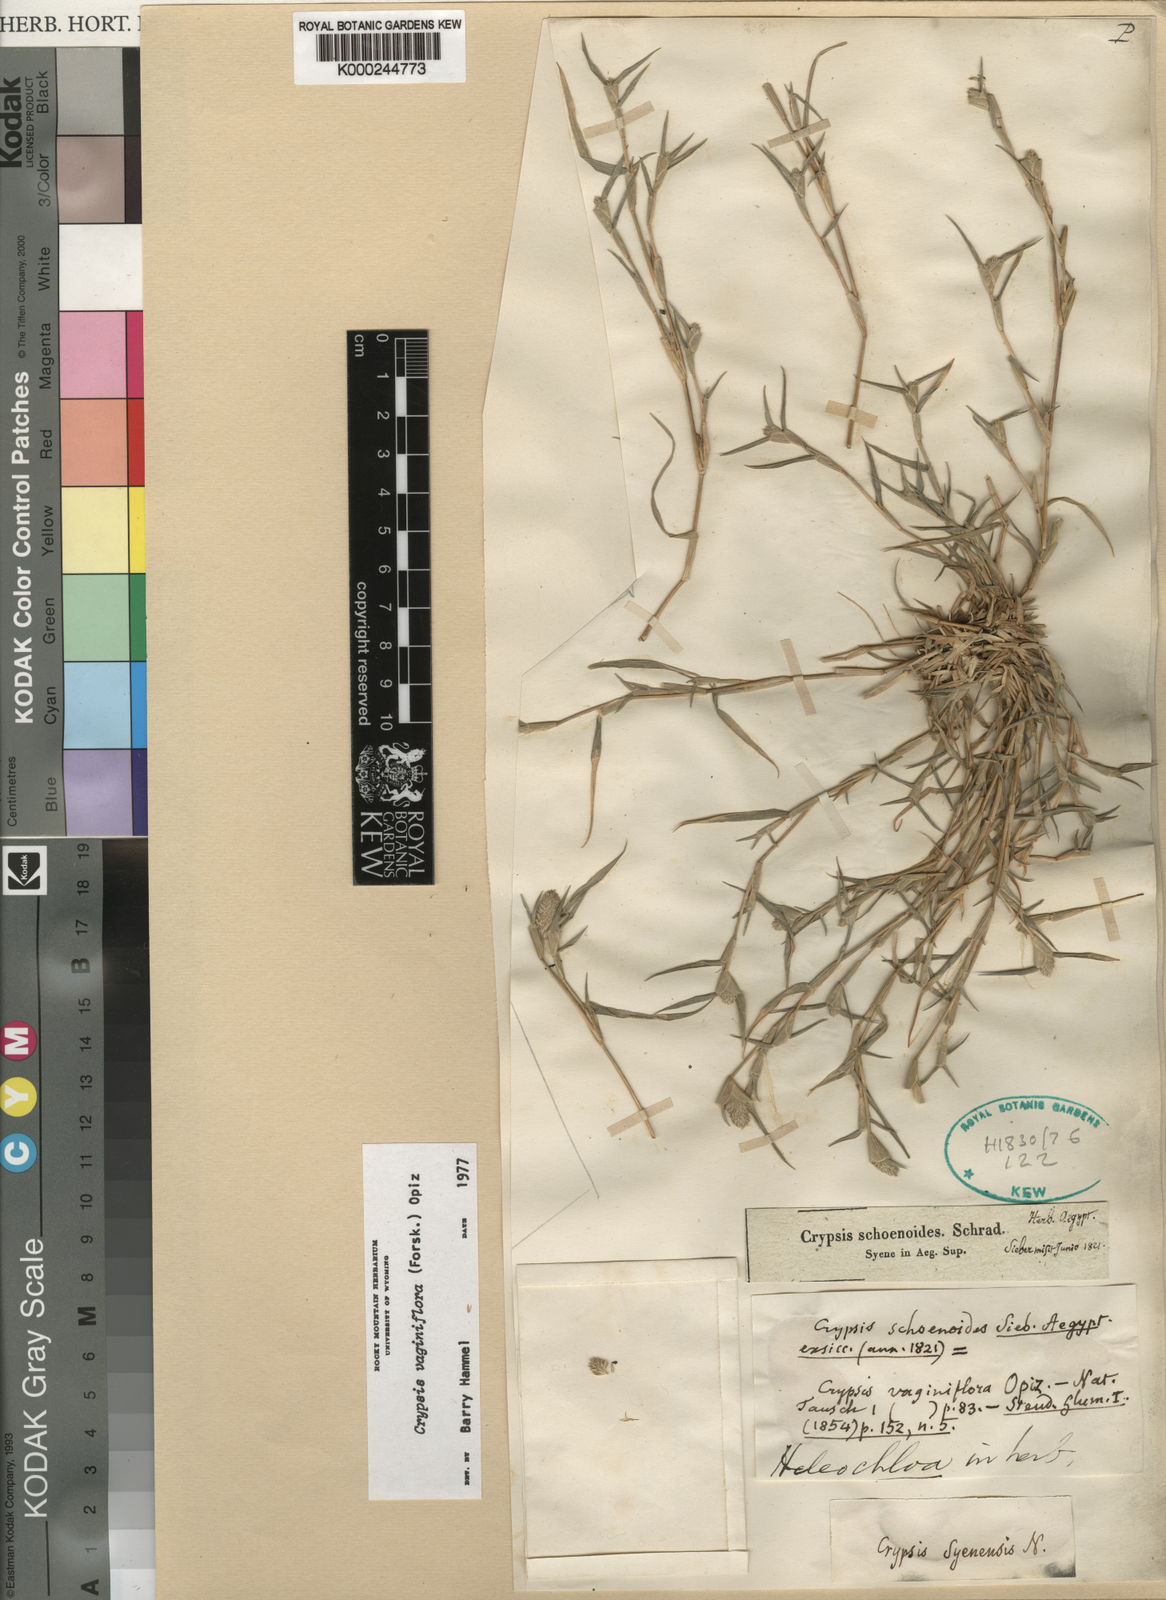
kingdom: Plantae
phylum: Tracheophyta
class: Liliopsida
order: Poales
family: Poaceae
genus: Sporobolus
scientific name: Sporobolus niliacus
